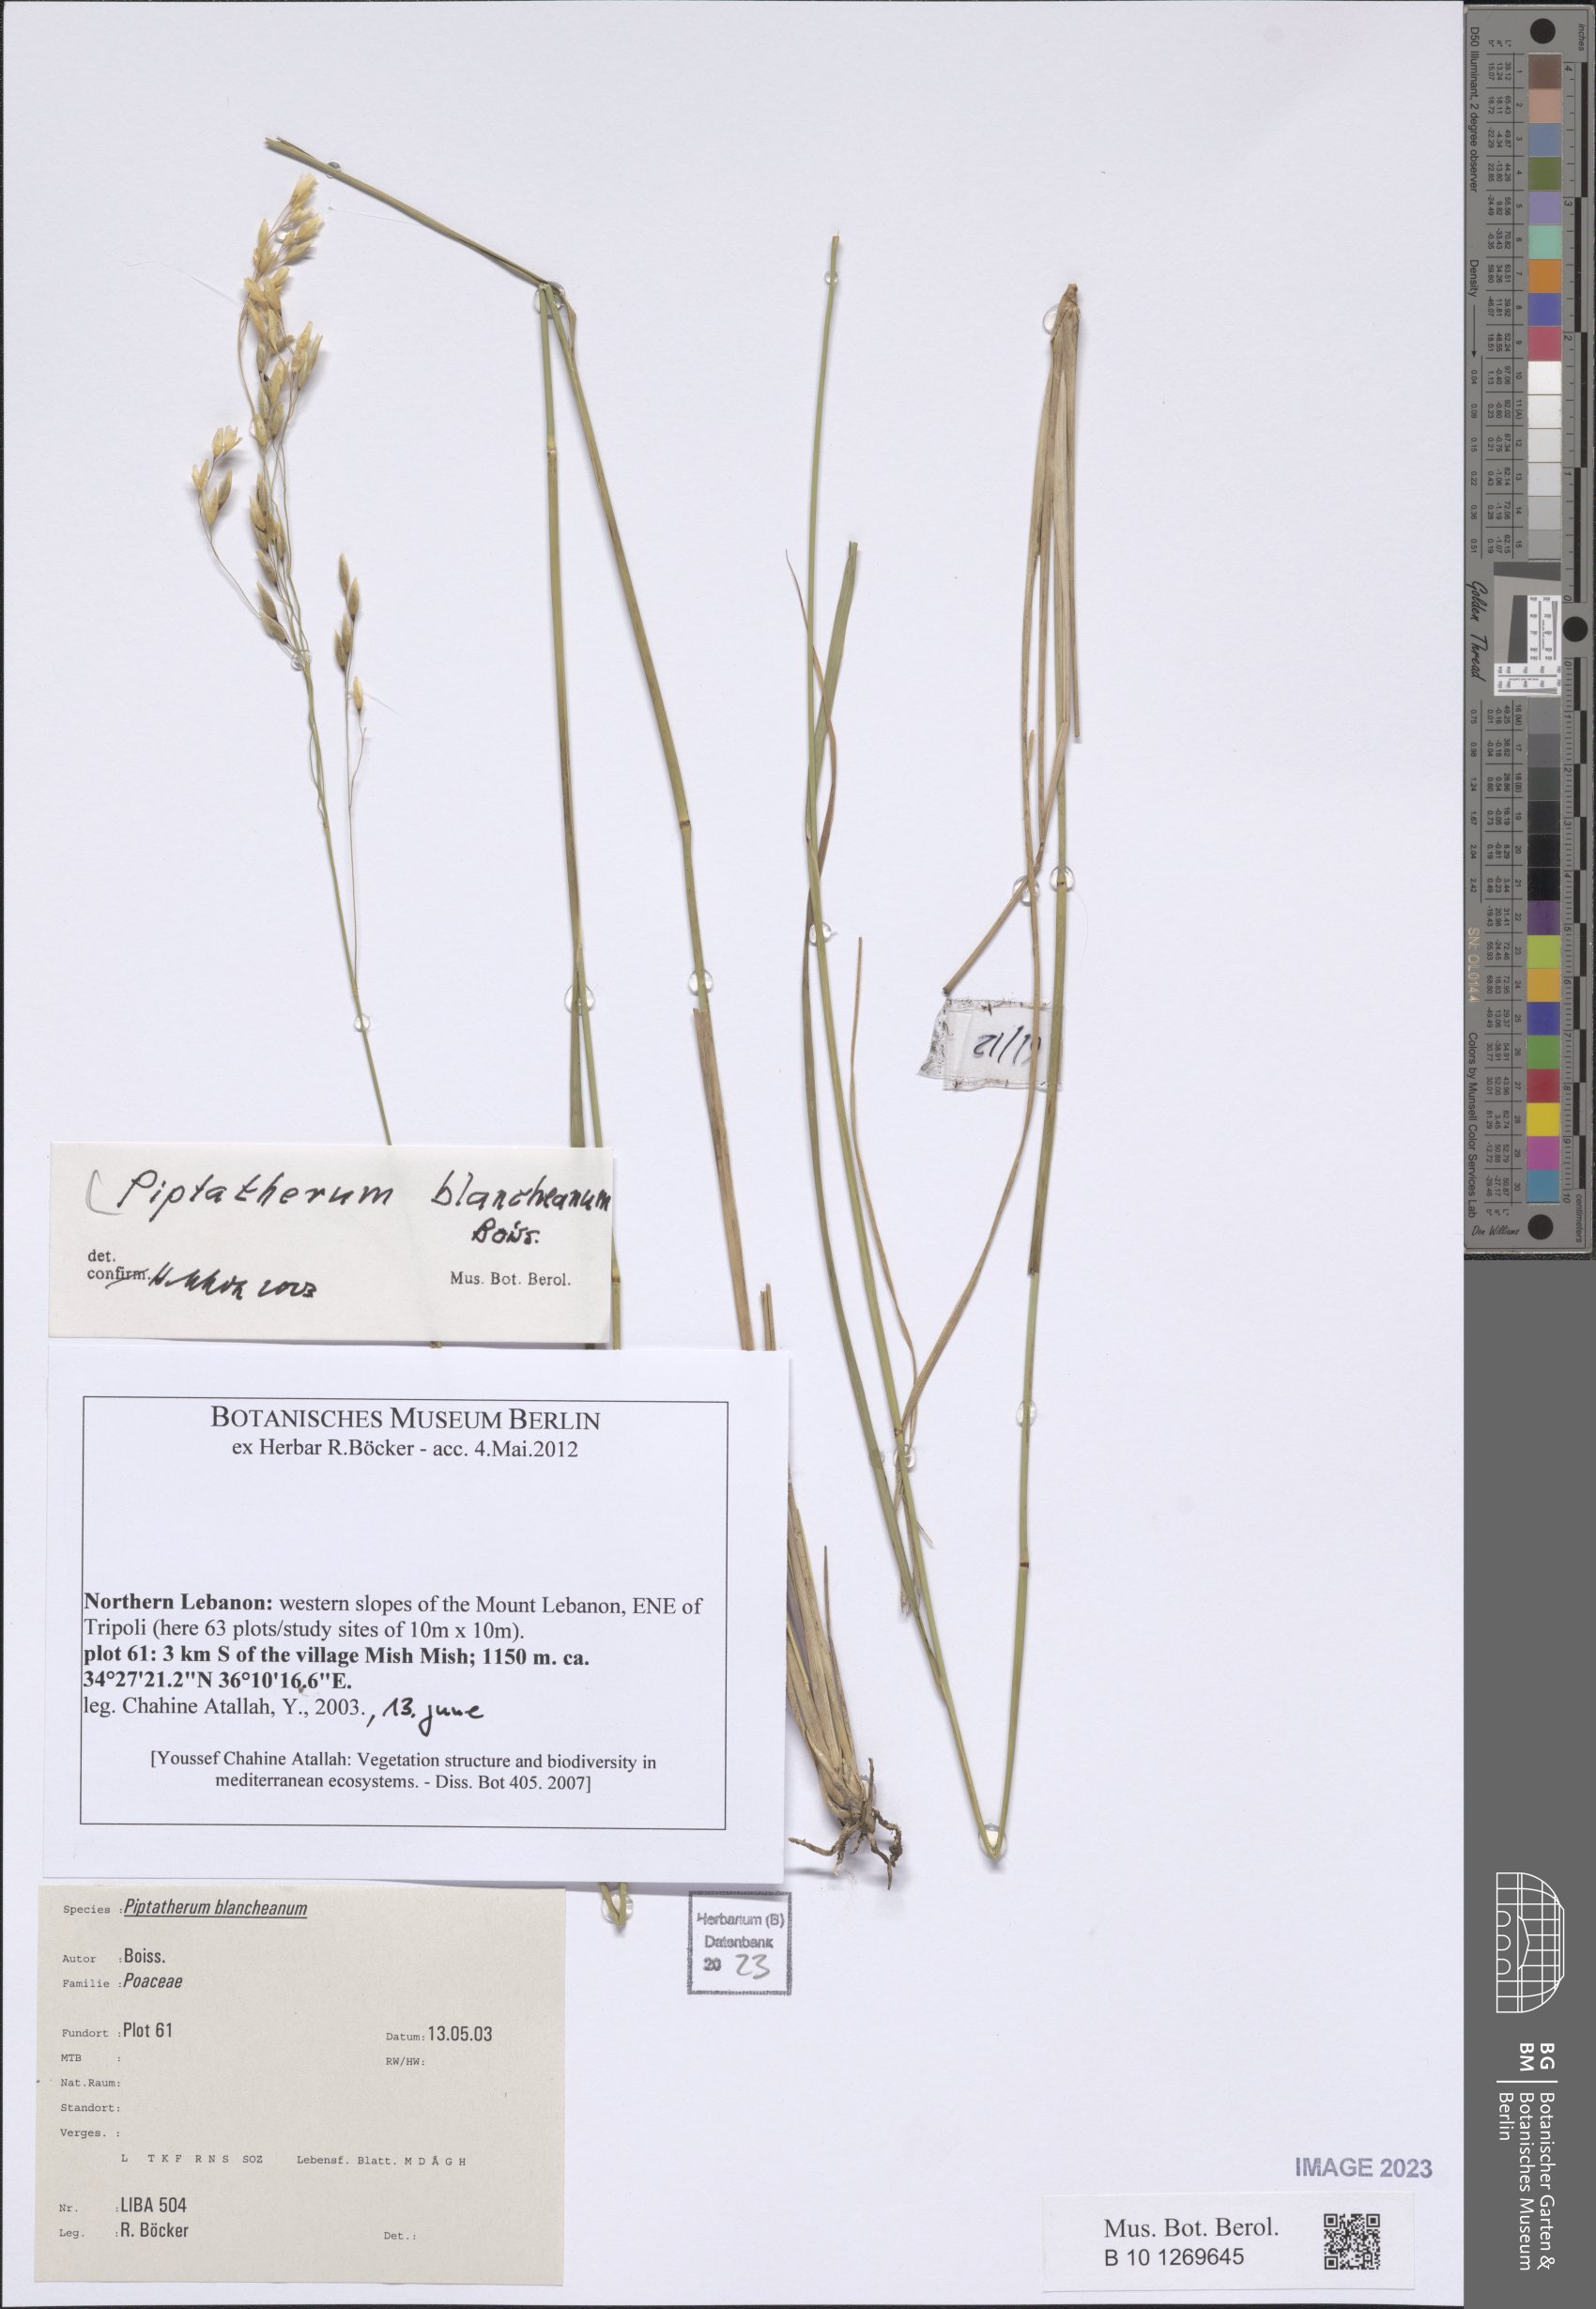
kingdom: Plantae
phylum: Tracheophyta
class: Liliopsida
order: Poales
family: Poaceae
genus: Piptatherum
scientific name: Piptatherum blancheanum
